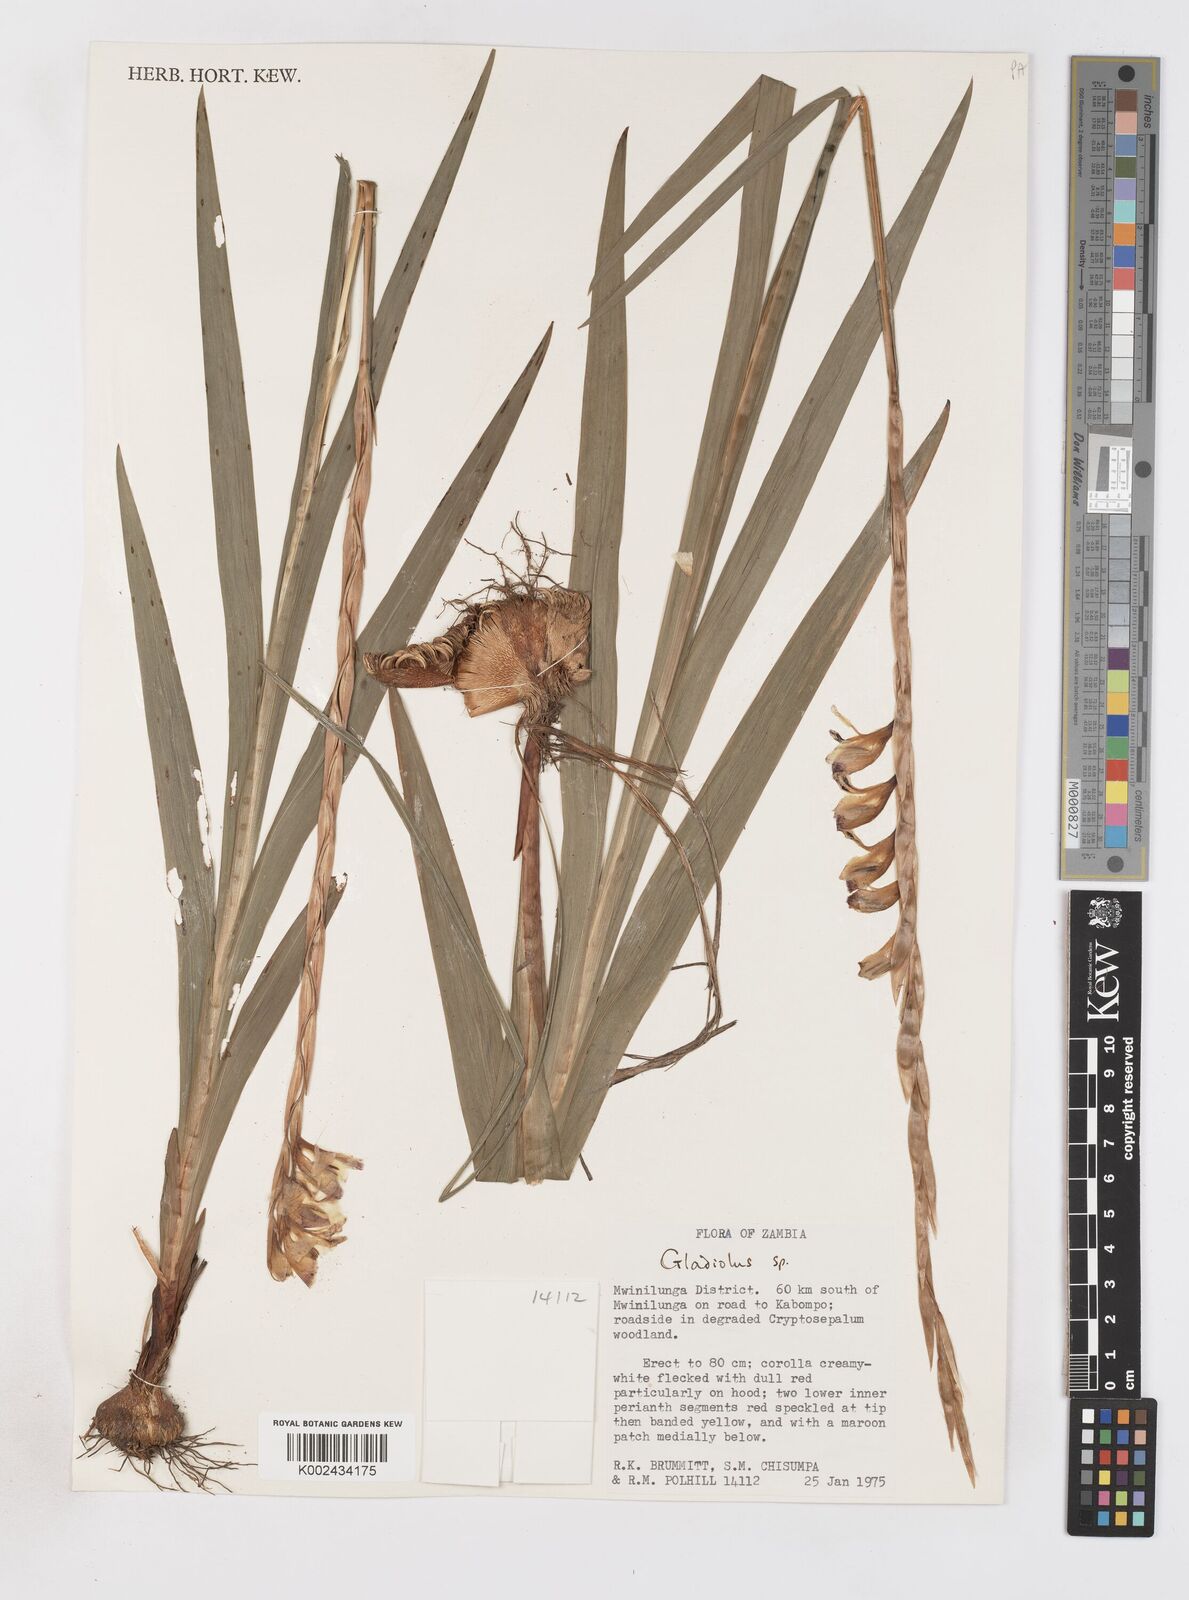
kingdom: Plantae
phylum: Tracheophyta
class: Liliopsida
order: Asparagales
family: Iridaceae
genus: Gladiolus
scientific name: Gladiolus gregarius
